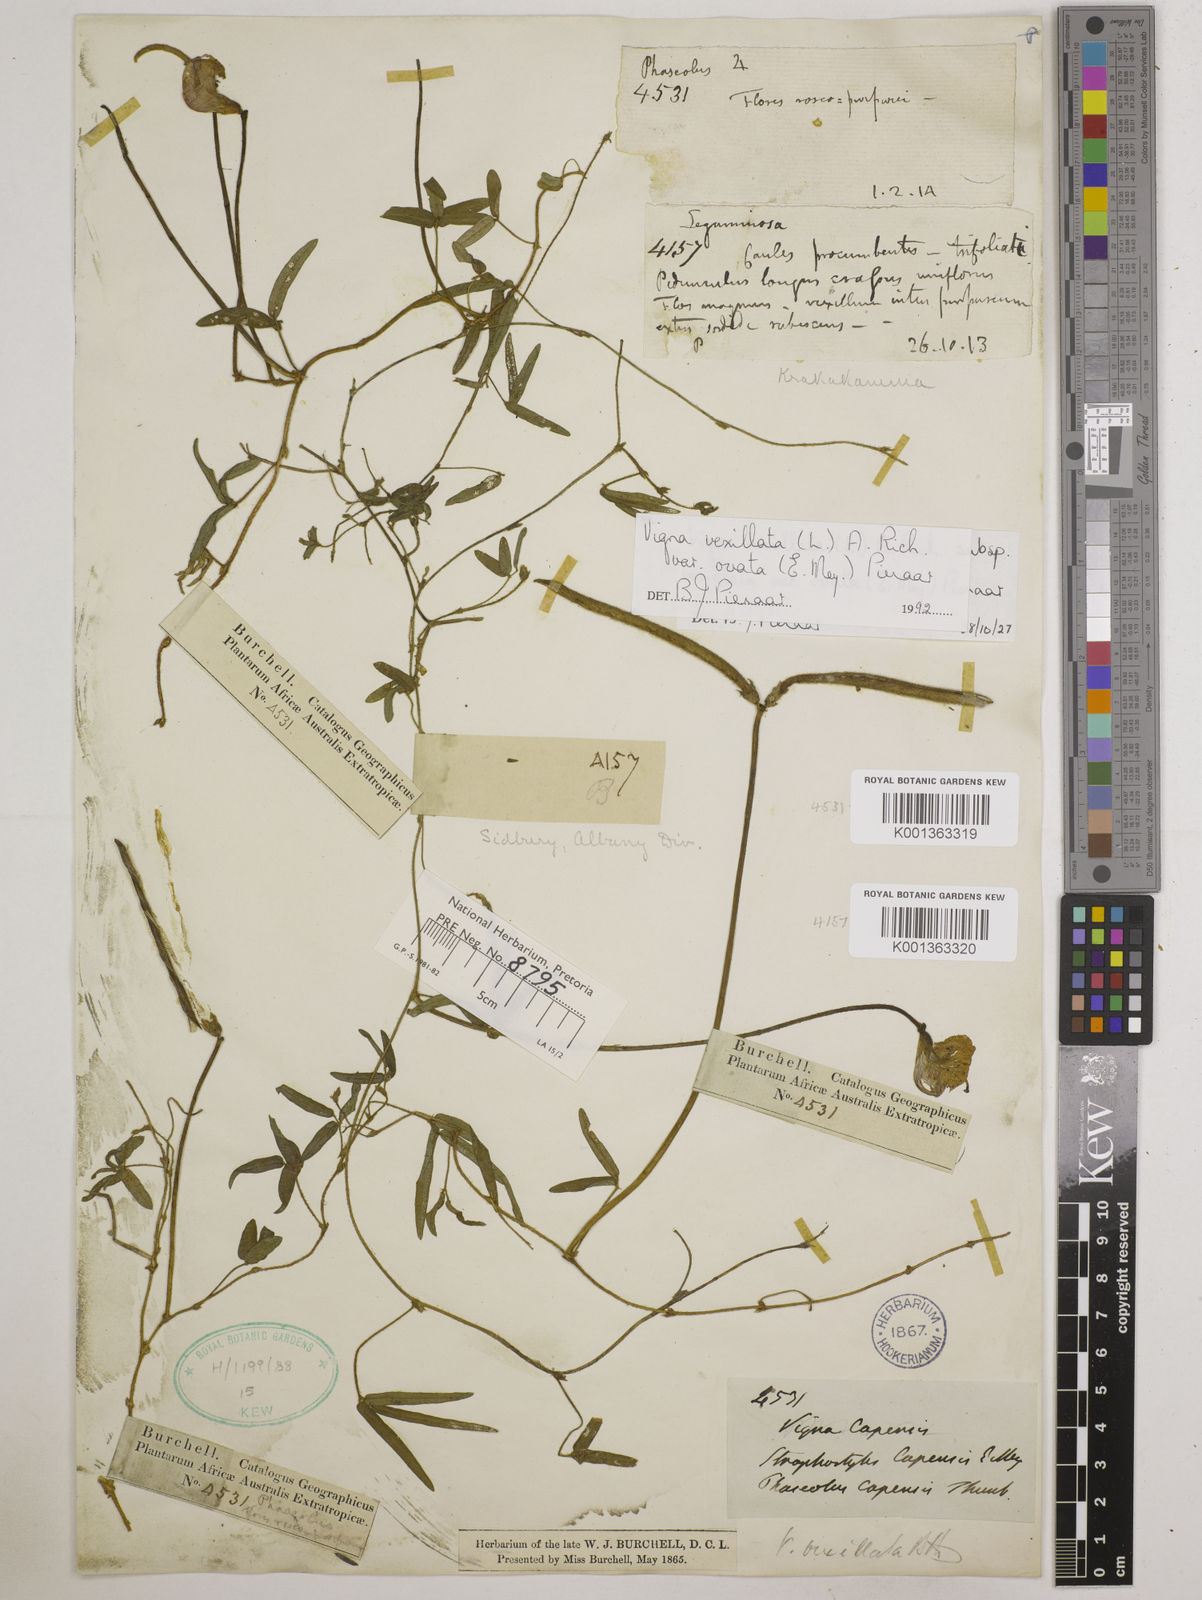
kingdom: Plantae
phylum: Tracheophyta
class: Magnoliopsida
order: Fabales
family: Fabaceae
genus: Vigna
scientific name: Vigna
